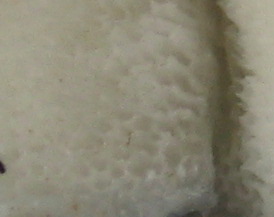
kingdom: Fungi
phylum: Basidiomycota
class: Agaricomycetes
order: Polyporales
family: Polyporaceae
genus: Cyanosporus
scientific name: Cyanosporus caesius
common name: blålig kødporesvamp
